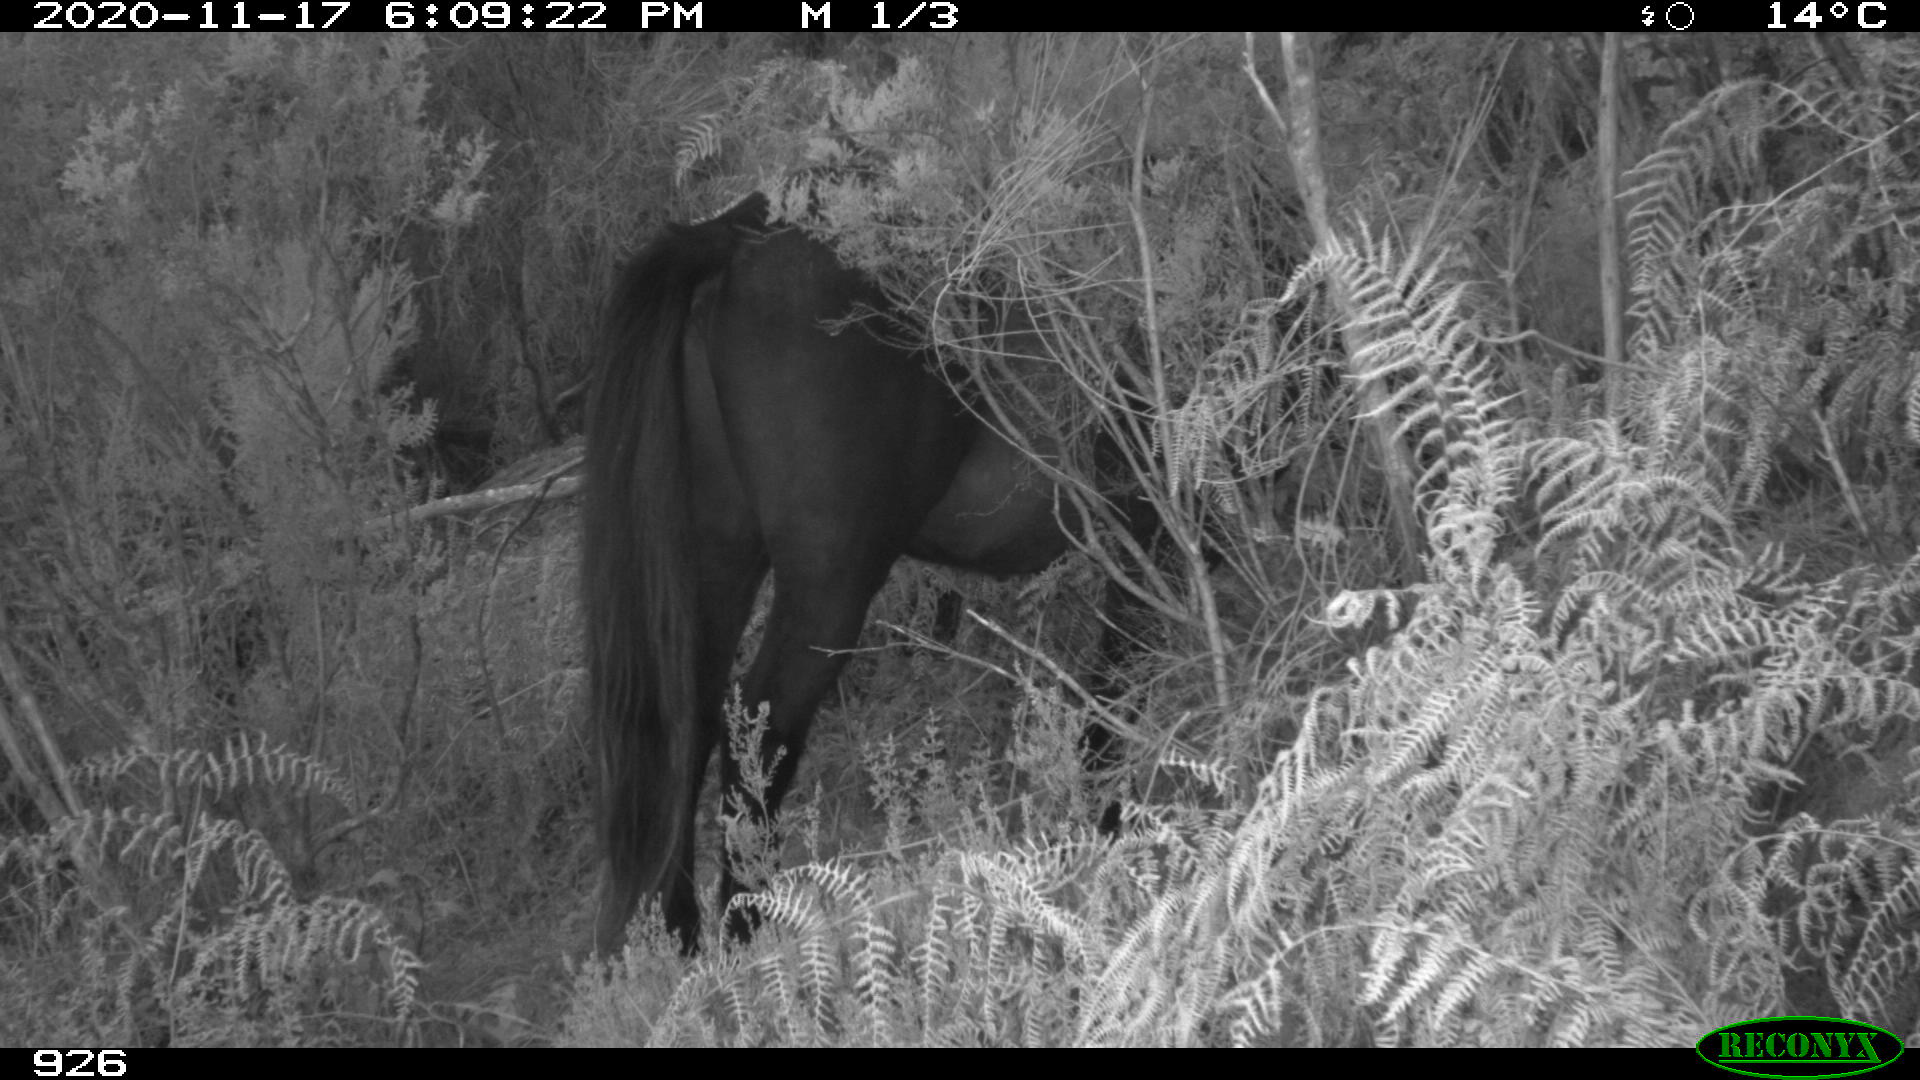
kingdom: Animalia
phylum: Chordata
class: Mammalia
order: Perissodactyla
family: Equidae
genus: Equus
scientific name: Equus caballus
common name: Horse
